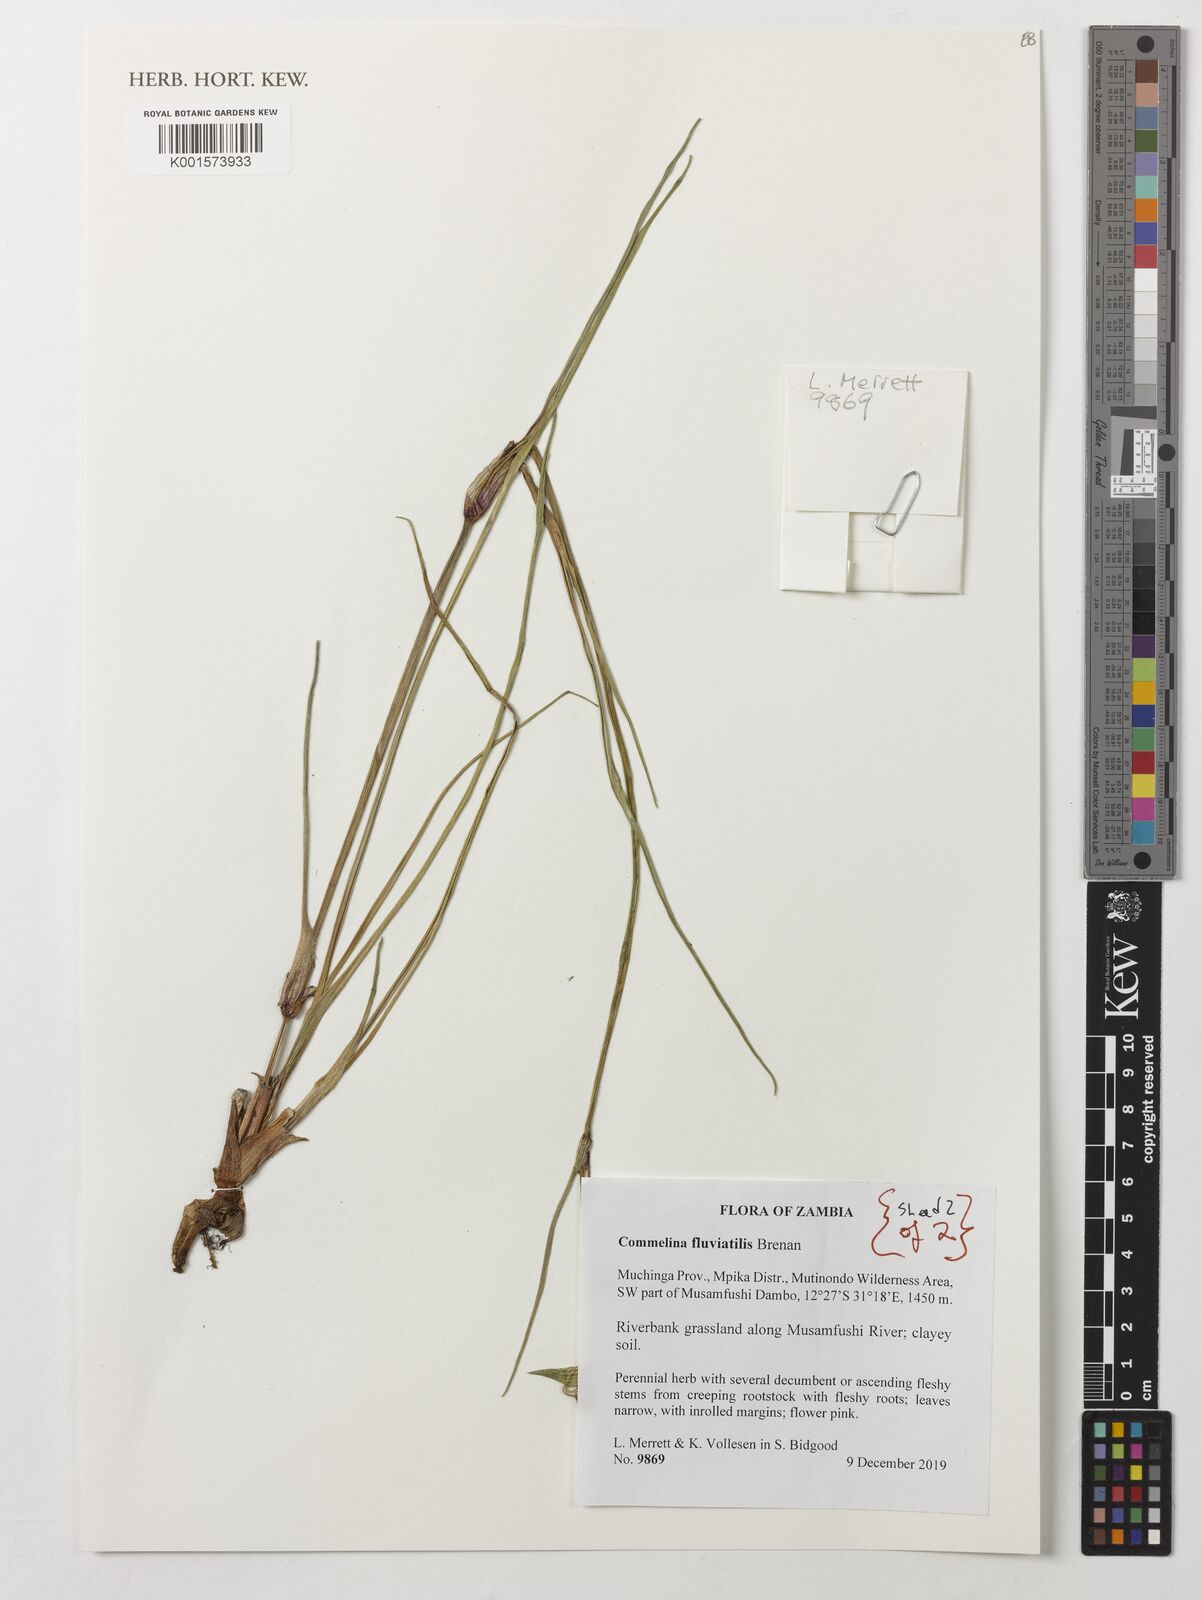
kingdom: Plantae
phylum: Tracheophyta
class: Liliopsida
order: Commelinales
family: Commelinaceae
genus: Commelina
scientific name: Commelina fluviatilis
